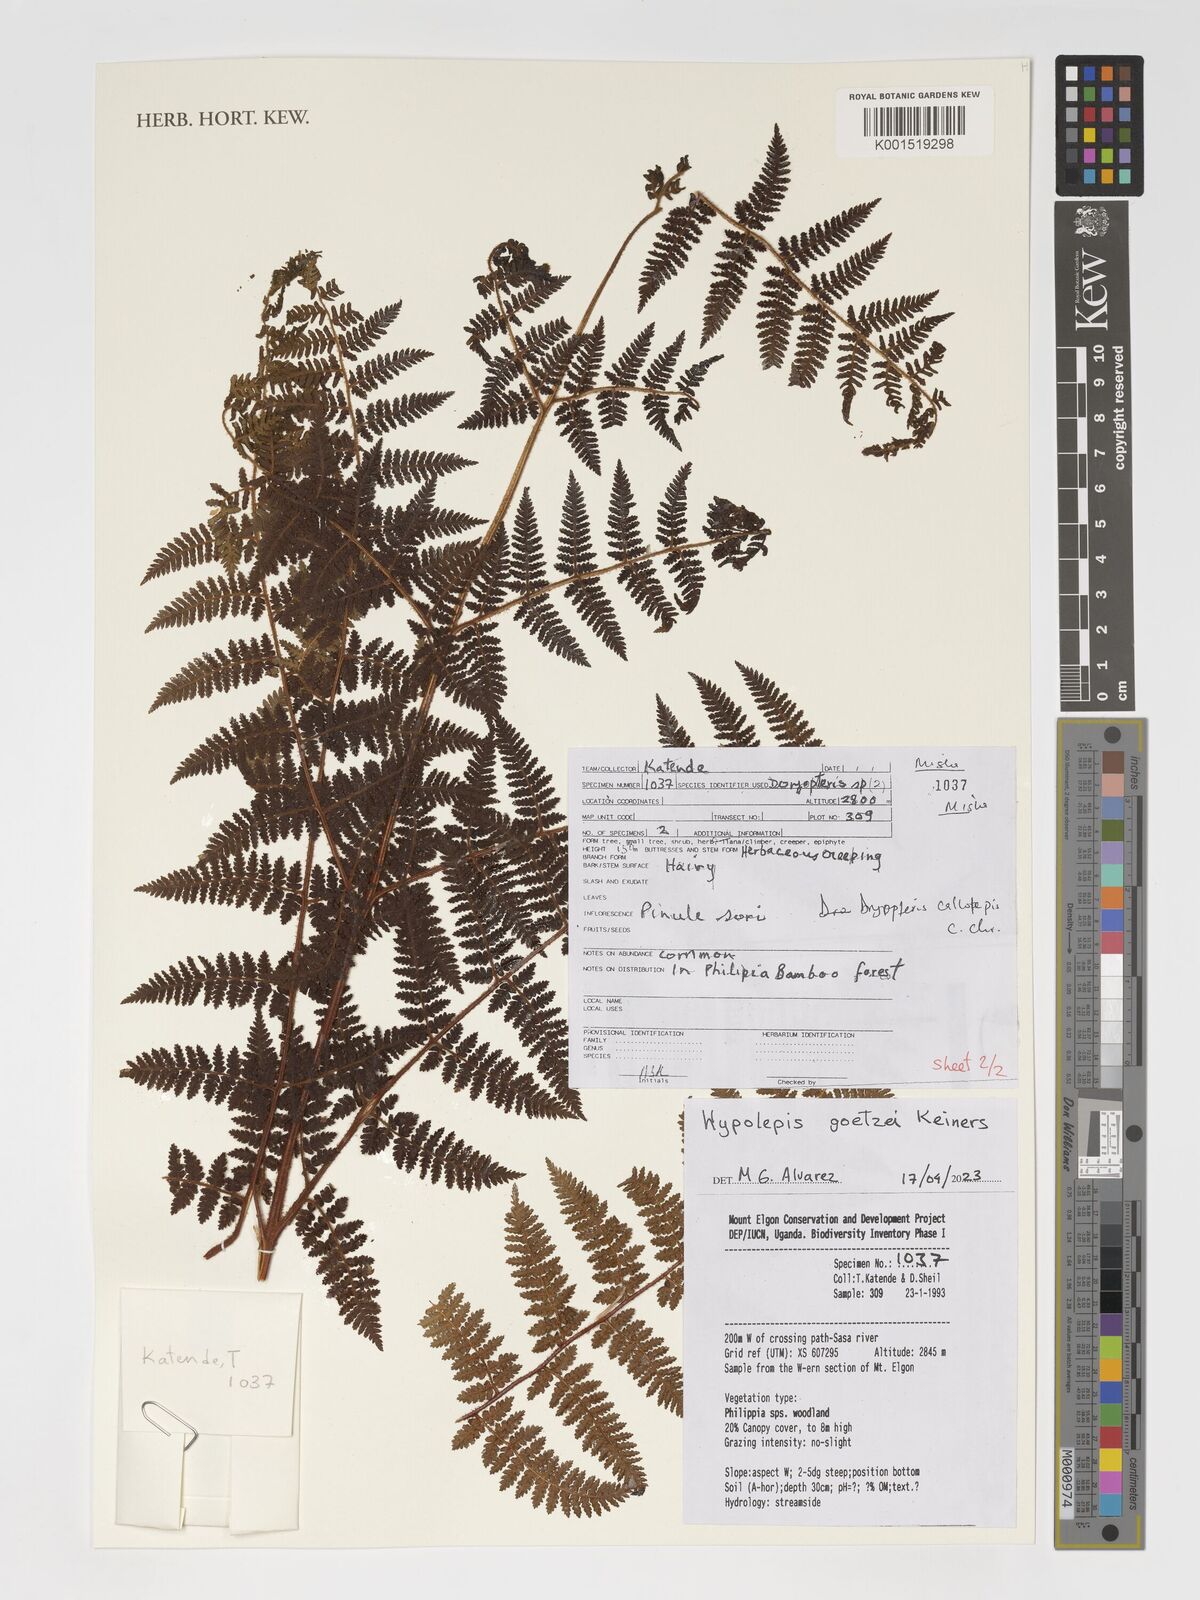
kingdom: Plantae
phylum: Tracheophyta
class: Polypodiopsida
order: Polypodiales
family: Dennstaedtiaceae
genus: Hypolepis
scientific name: Hypolepis rugosula
